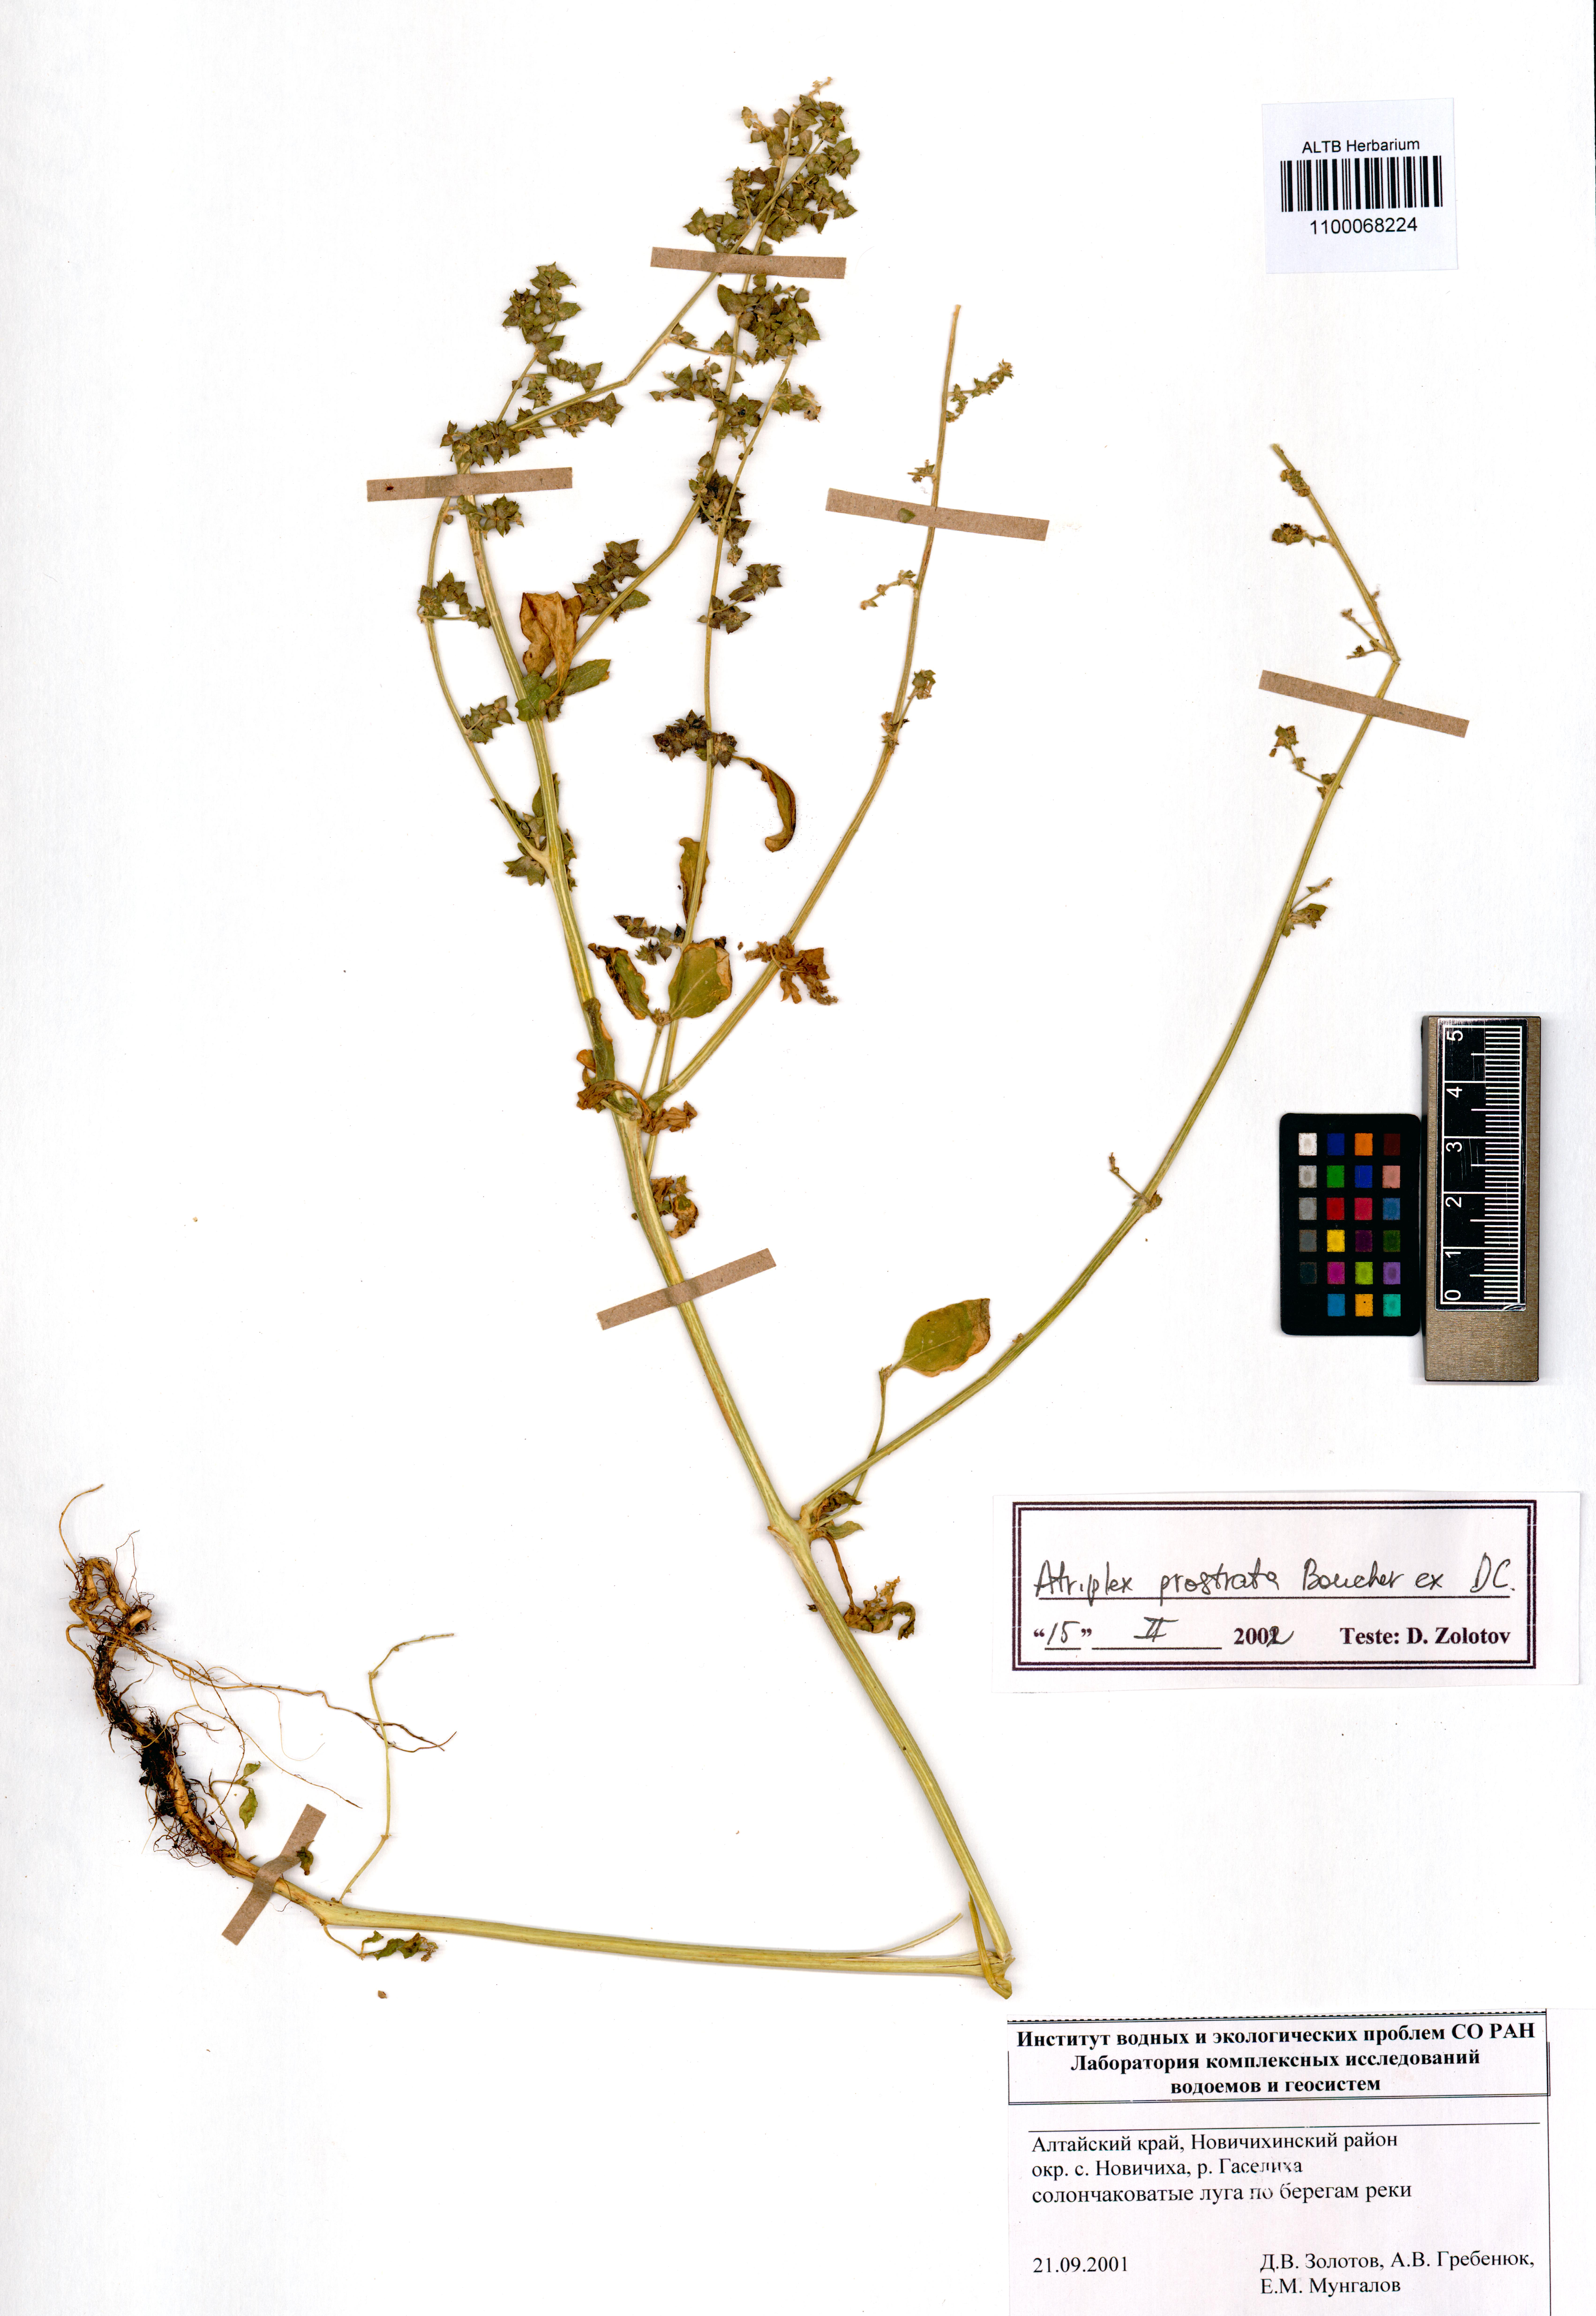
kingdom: Plantae
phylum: Tracheophyta
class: Magnoliopsida
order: Caryophyllales
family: Amaranthaceae
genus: Atriplex
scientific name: Atriplex prostrata
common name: Spear-leaved orache
